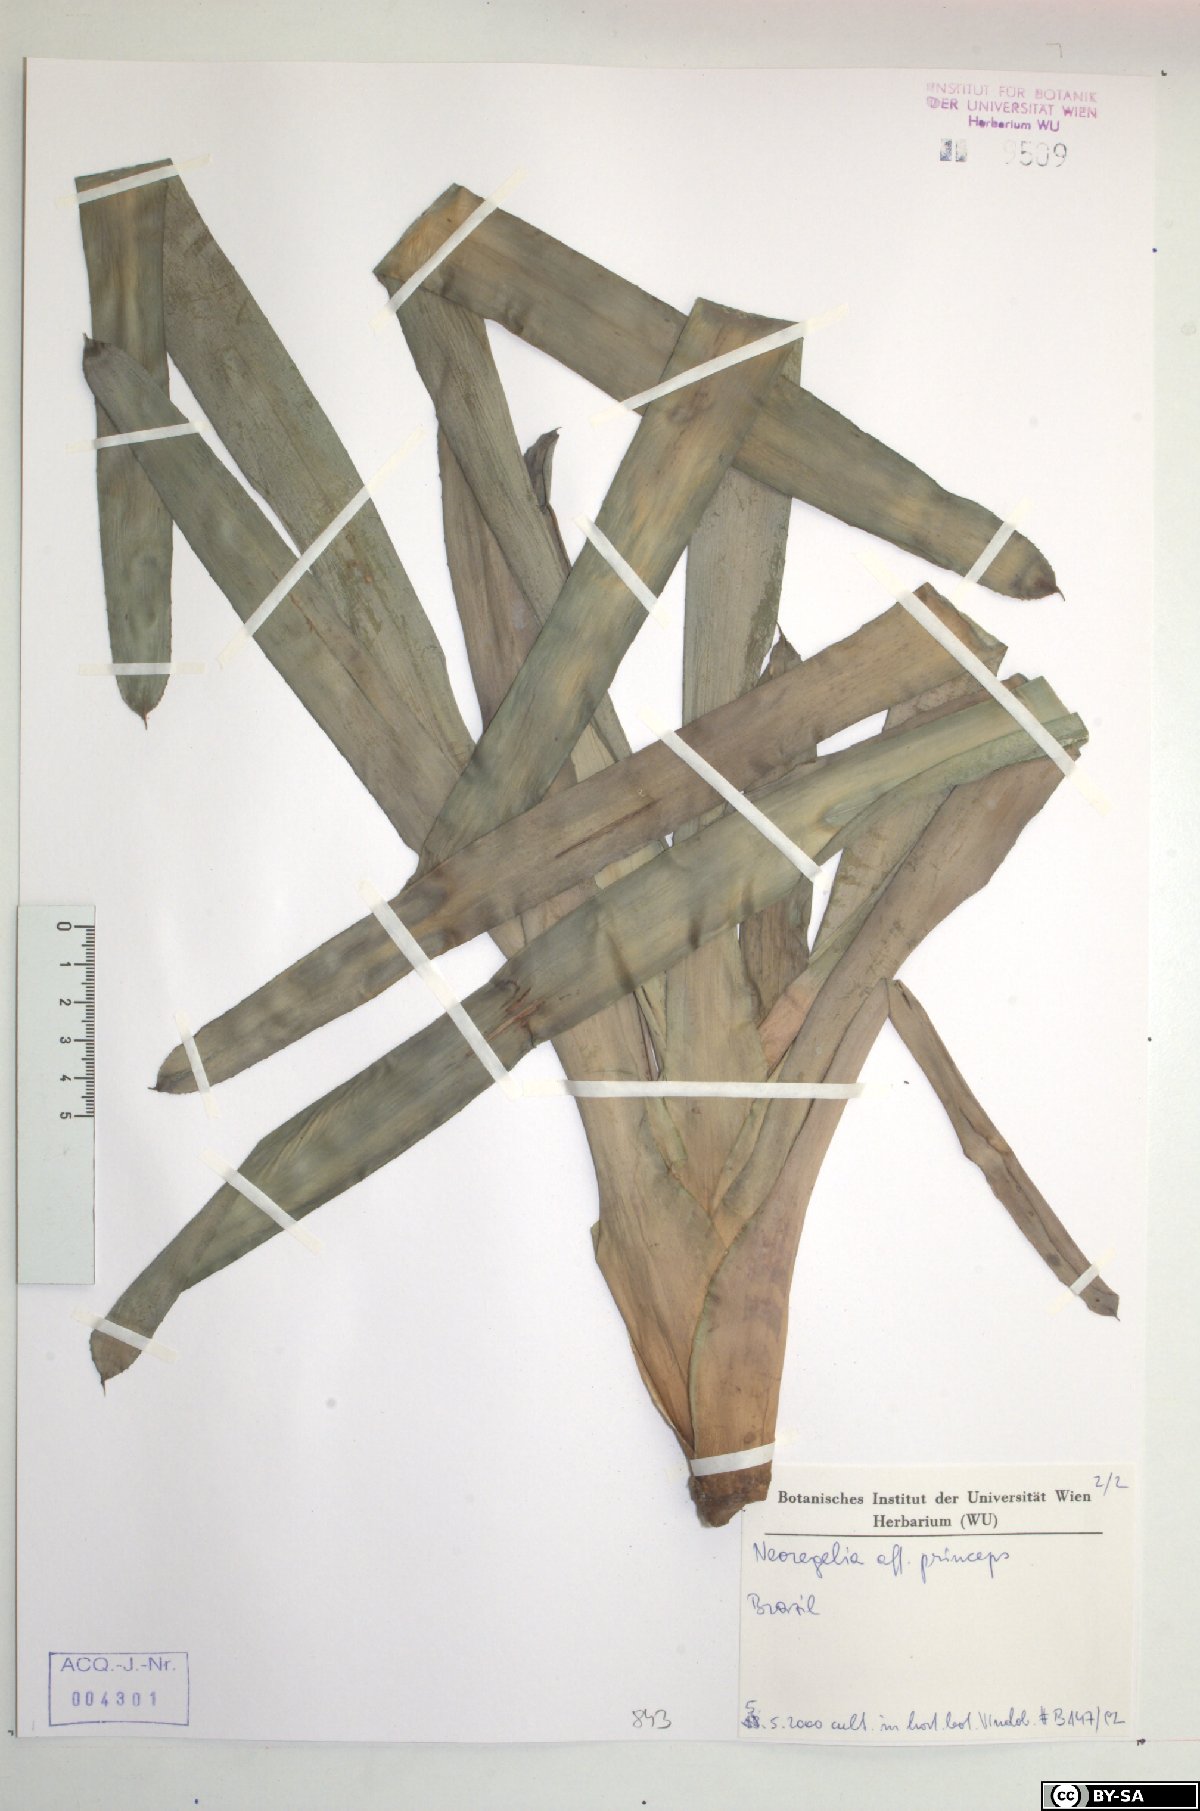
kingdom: Plantae
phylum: Tracheophyta
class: Liliopsida
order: Poales
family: Bromeliaceae
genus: Neoregelia
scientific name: Neoregelia princeps
